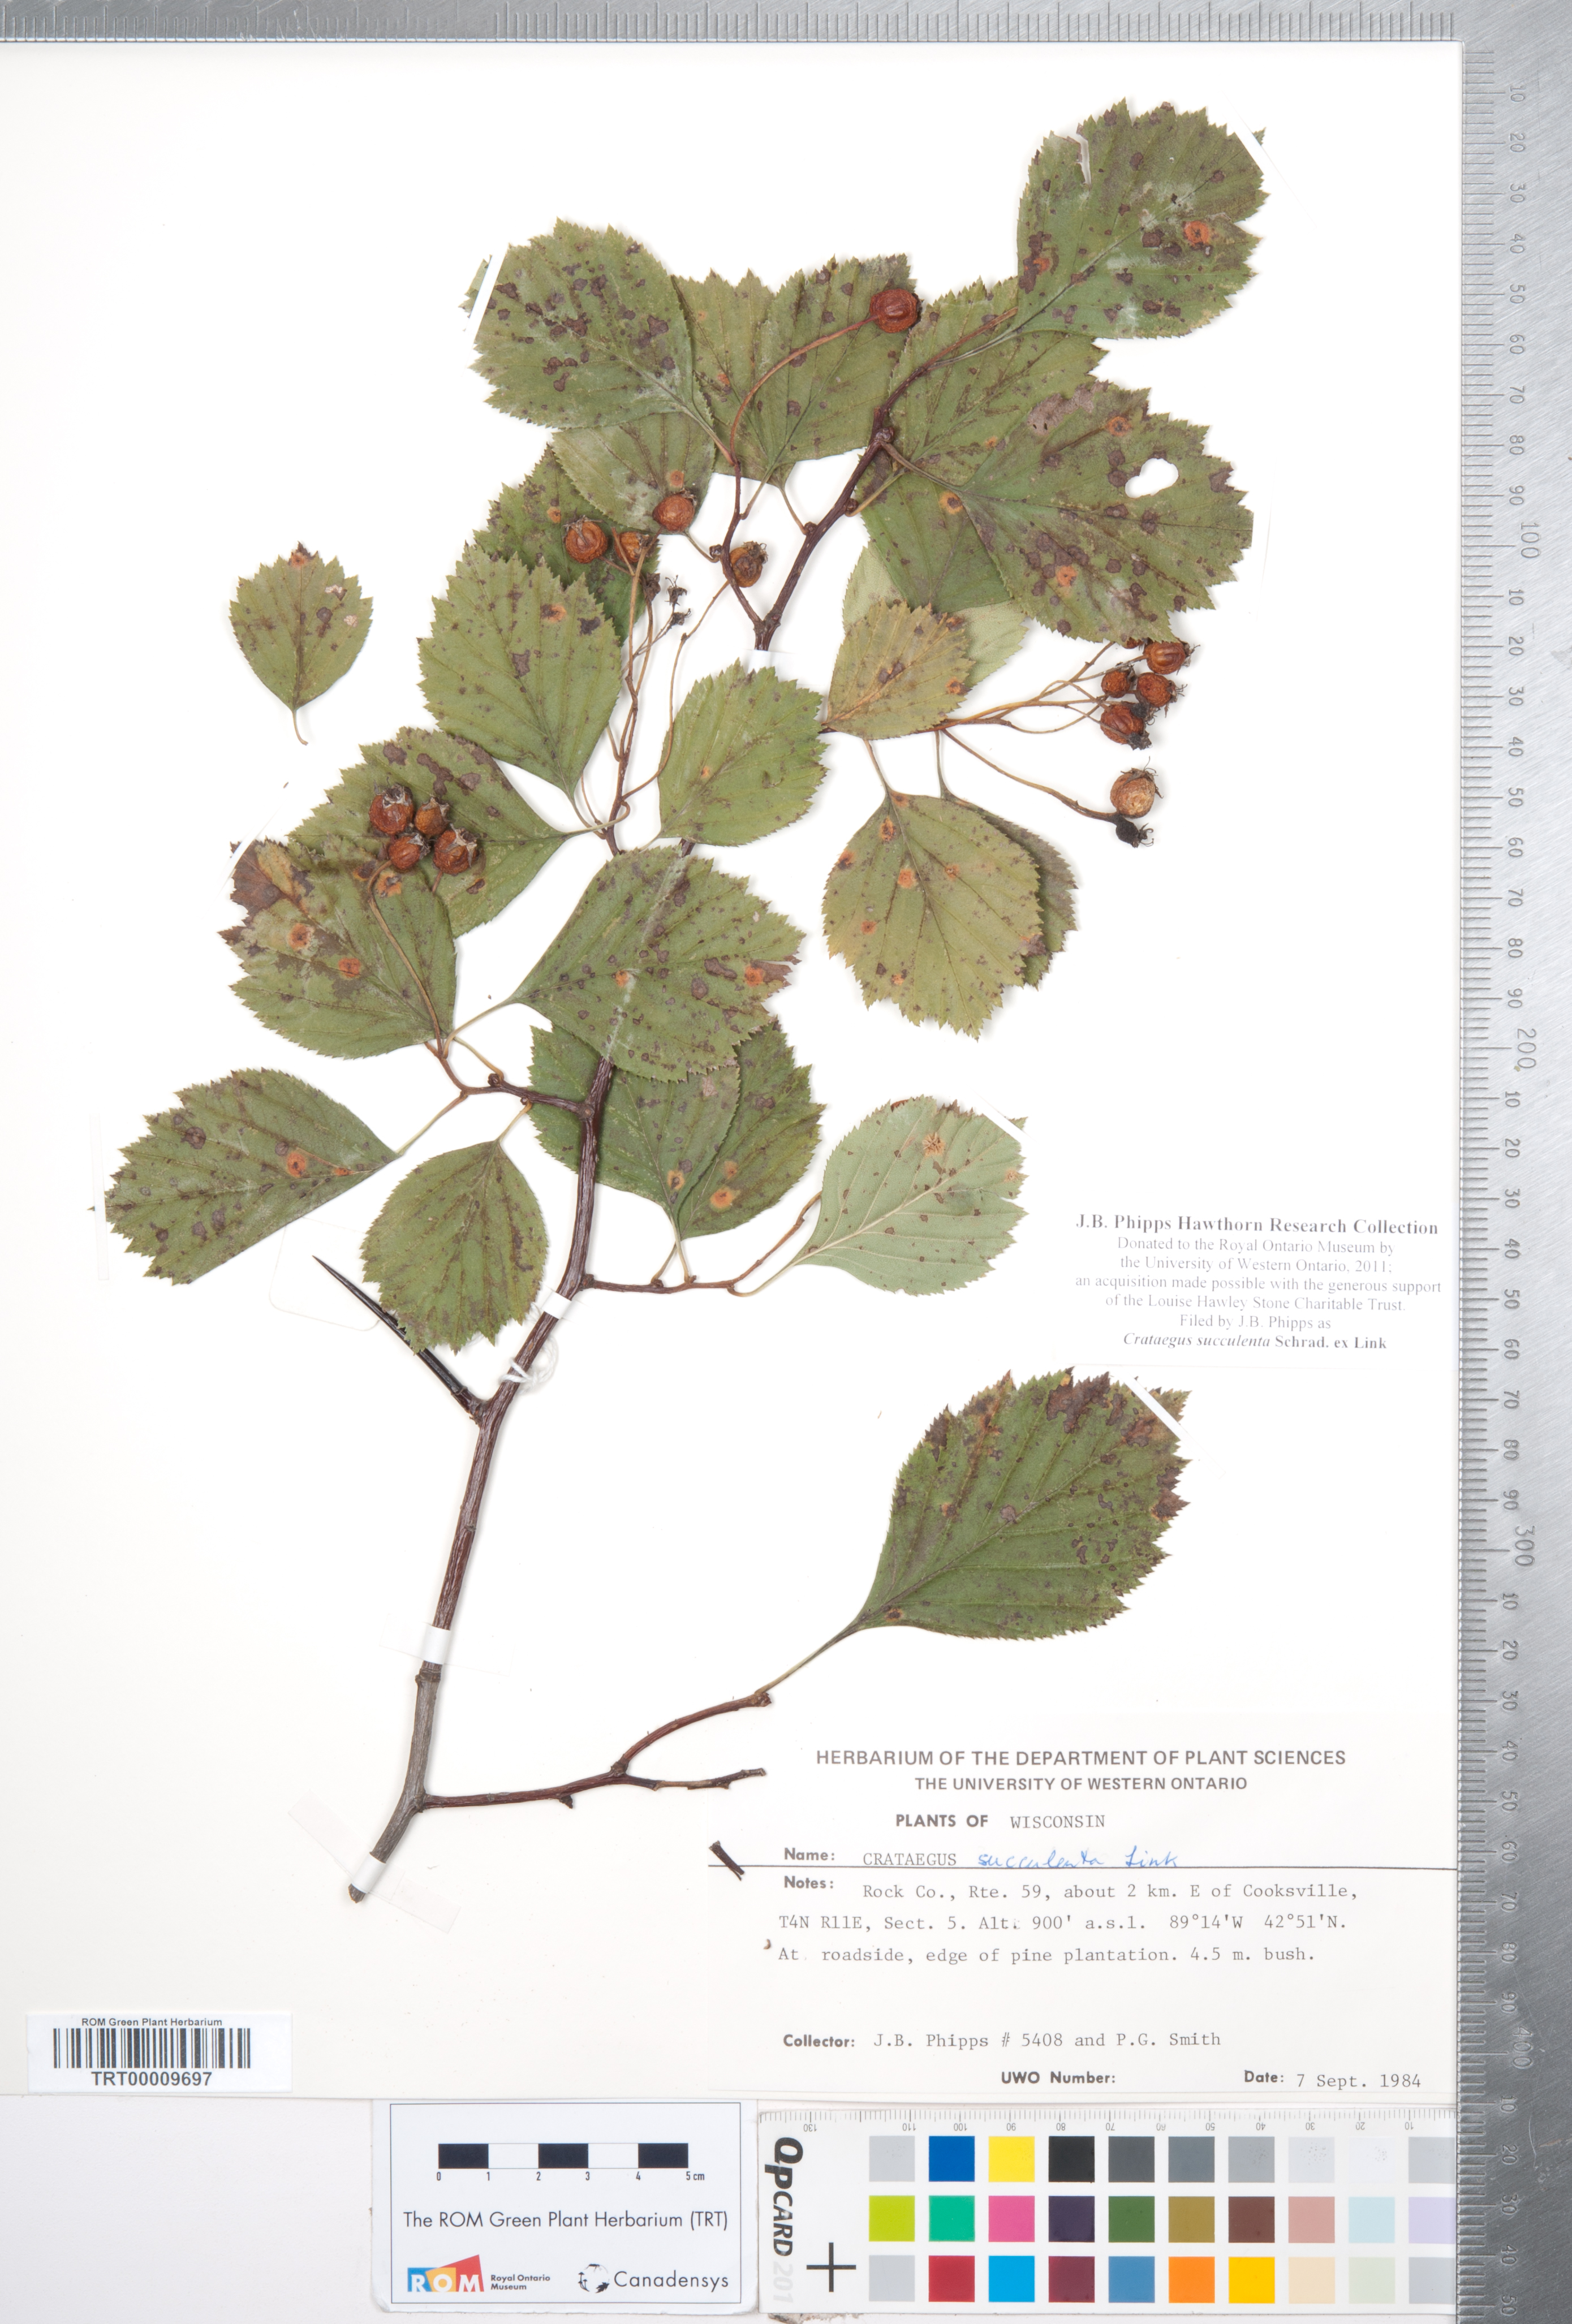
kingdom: Plantae
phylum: Tracheophyta
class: Magnoliopsida
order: Rosales
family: Rosaceae
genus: Crataegus
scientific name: Crataegus succulenta
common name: Fleshy hawthorn
